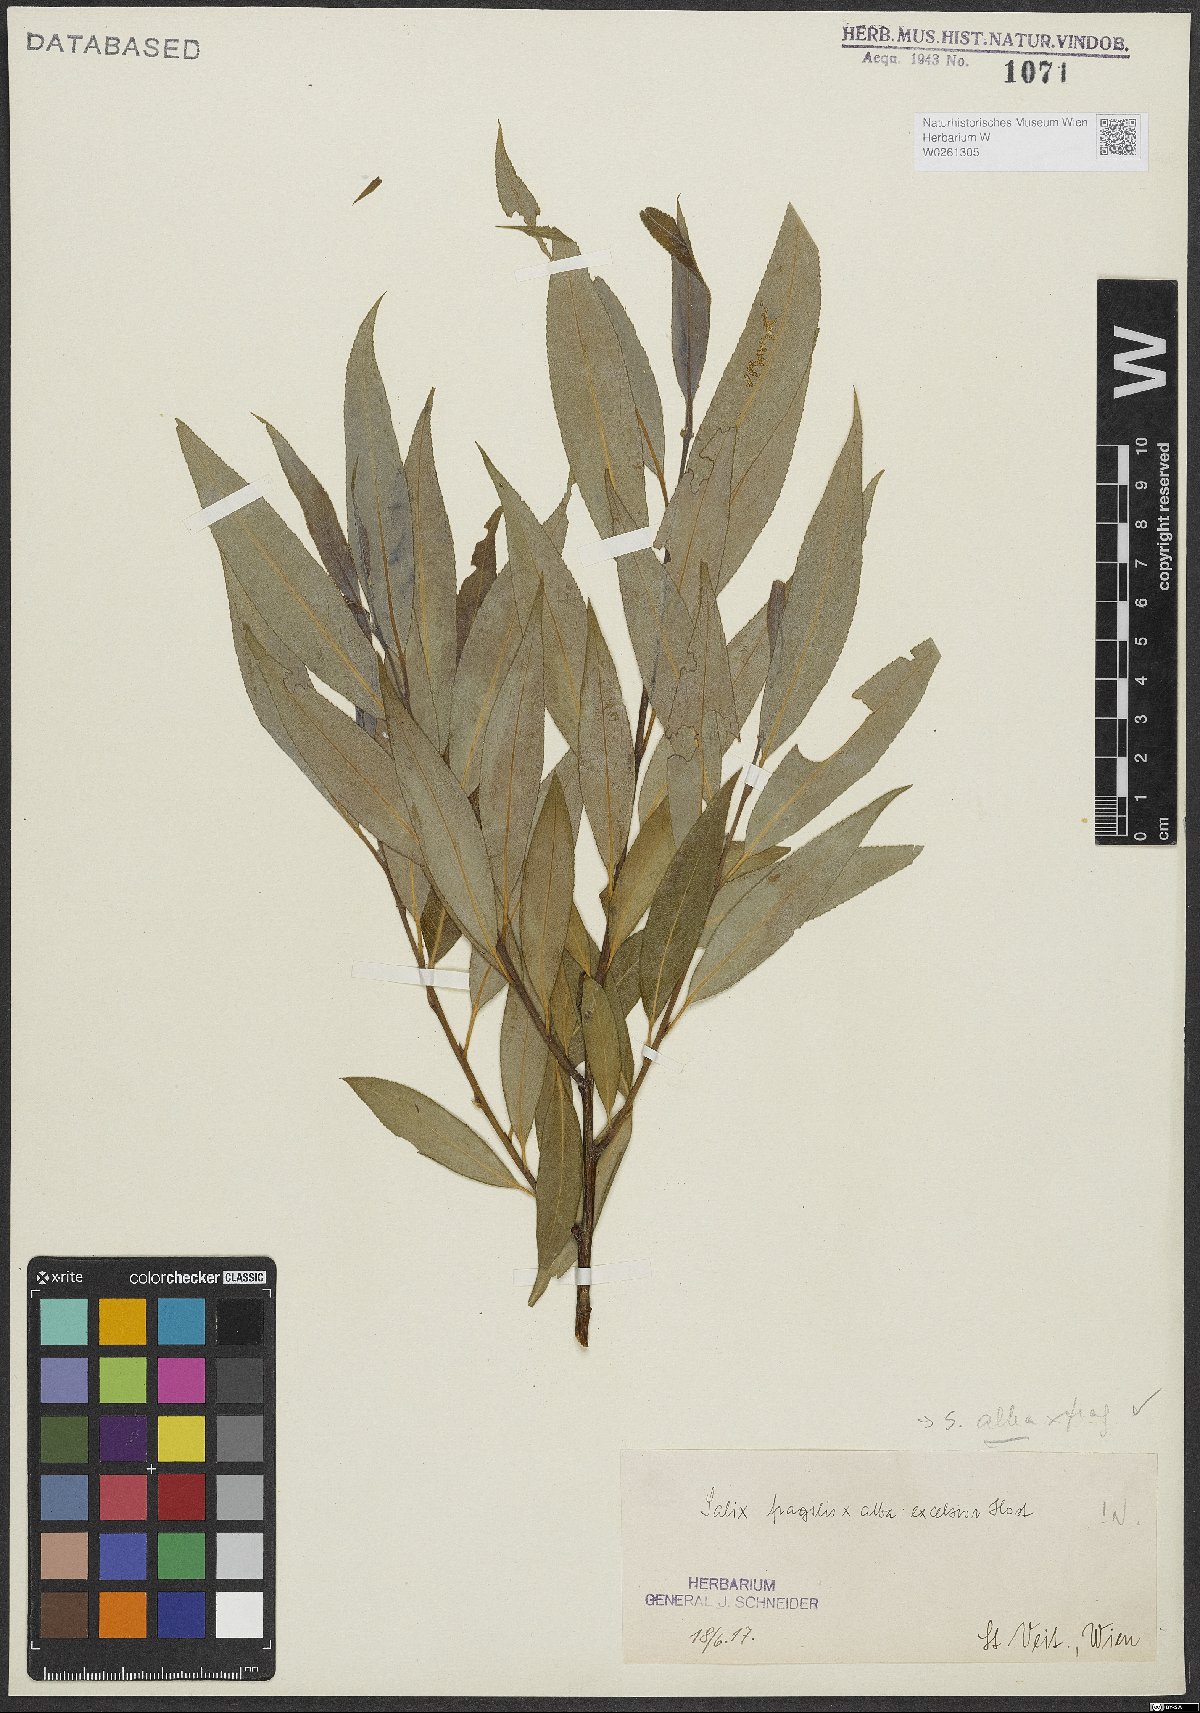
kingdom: Plantae
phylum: Tracheophyta
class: Magnoliopsida
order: Malpighiales
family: Salicaceae
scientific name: Salicaceae
